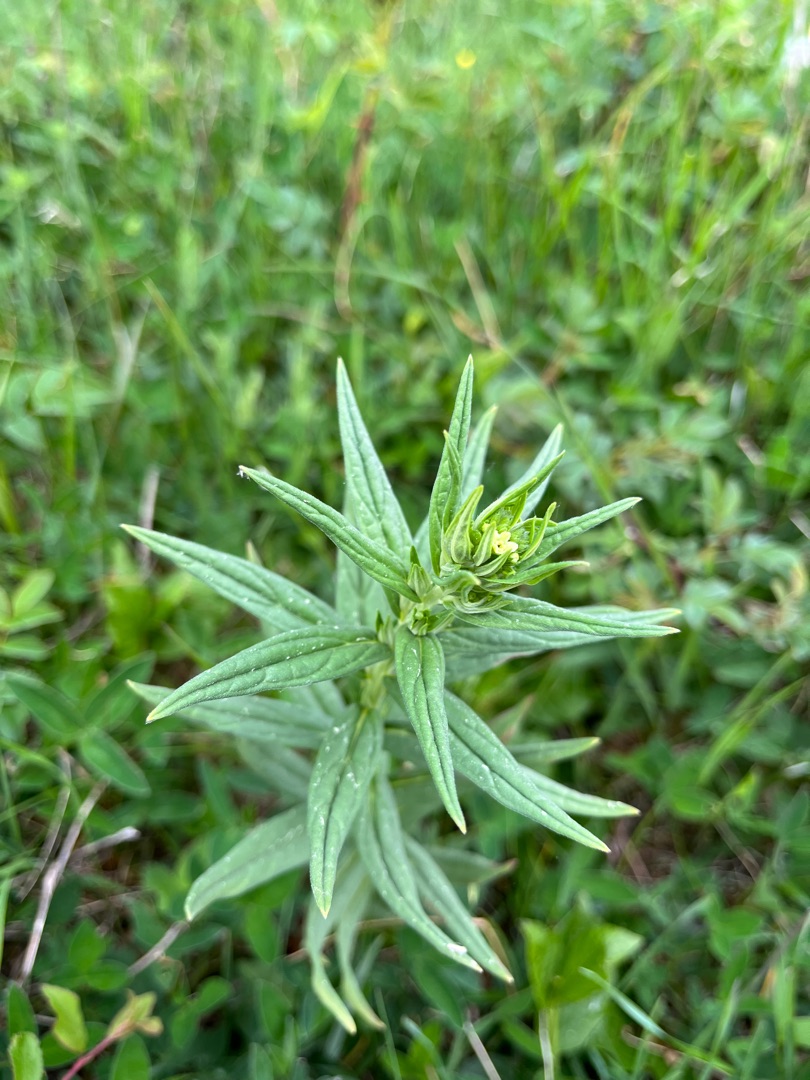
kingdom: Plantae
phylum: Tracheophyta
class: Magnoliopsida
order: Boraginales
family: Boraginaceae
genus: Lithospermum
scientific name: Lithospermum officinale
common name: Læge-stenfrø
